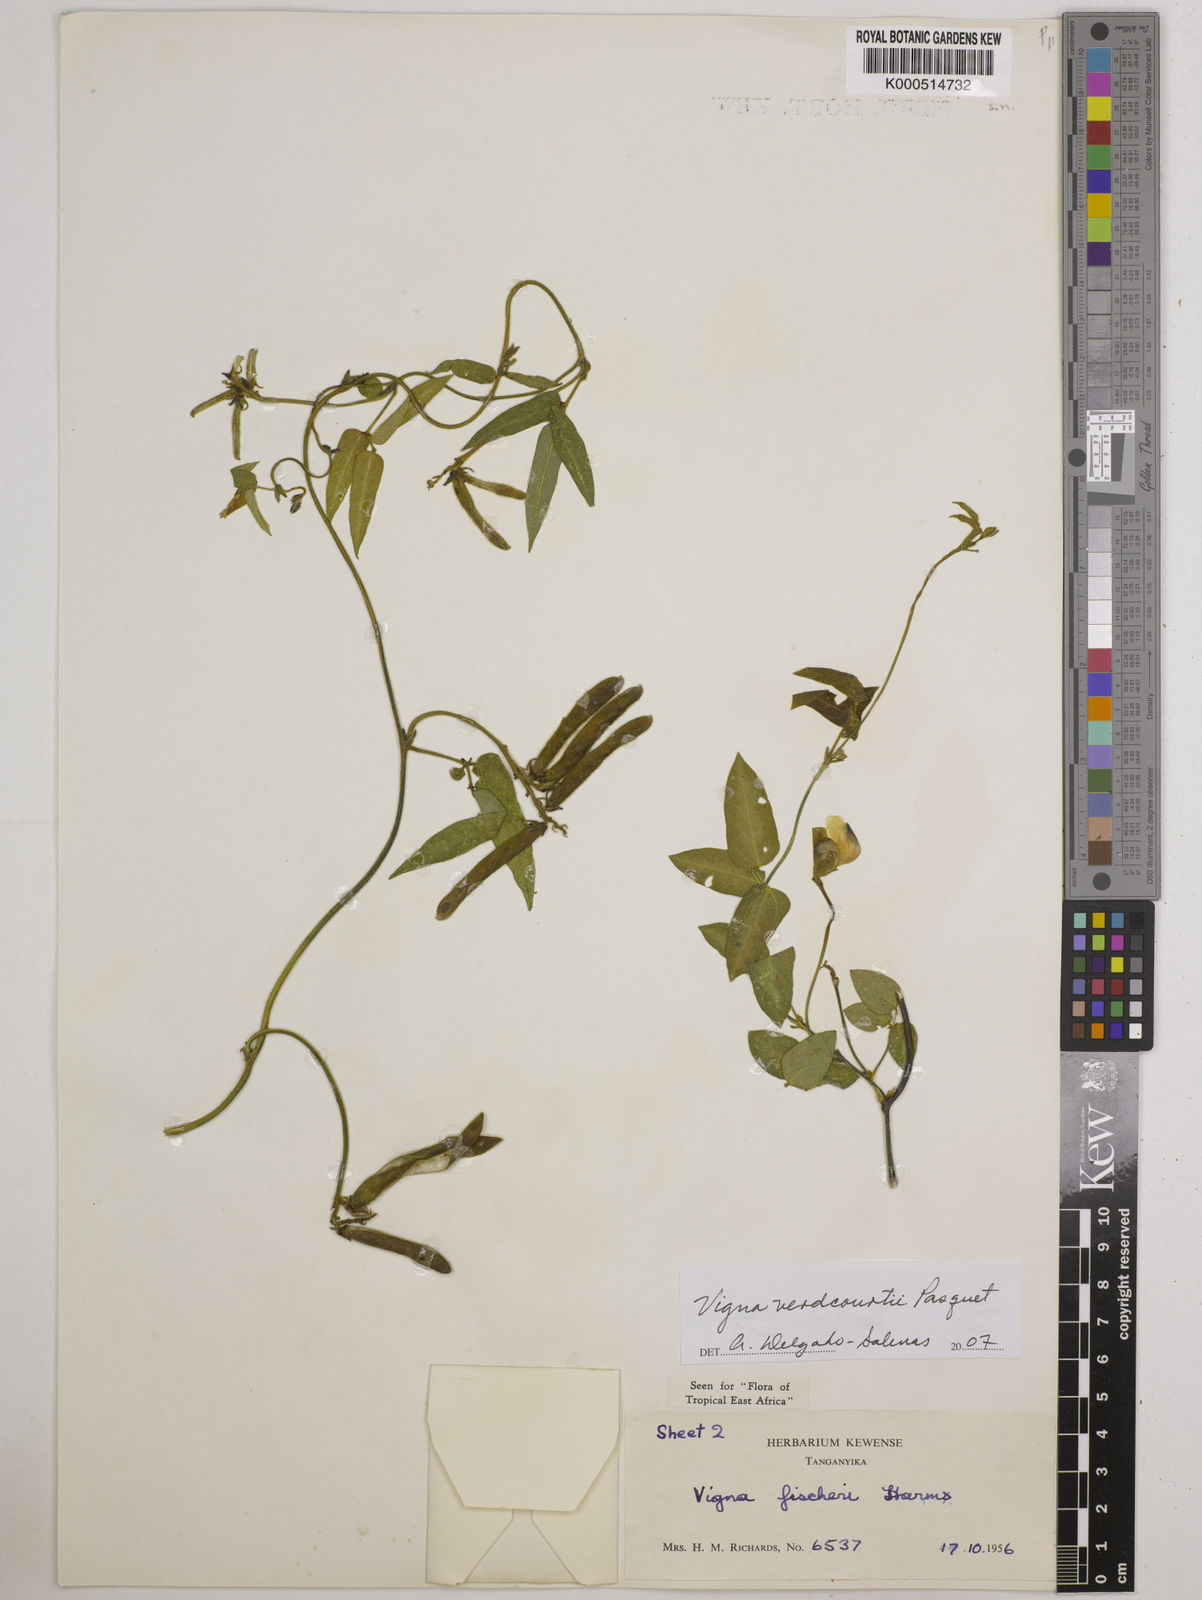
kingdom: Plantae
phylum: Tracheophyta
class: Magnoliopsida
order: Fabales
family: Fabaceae
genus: Vigna
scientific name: Vigna
